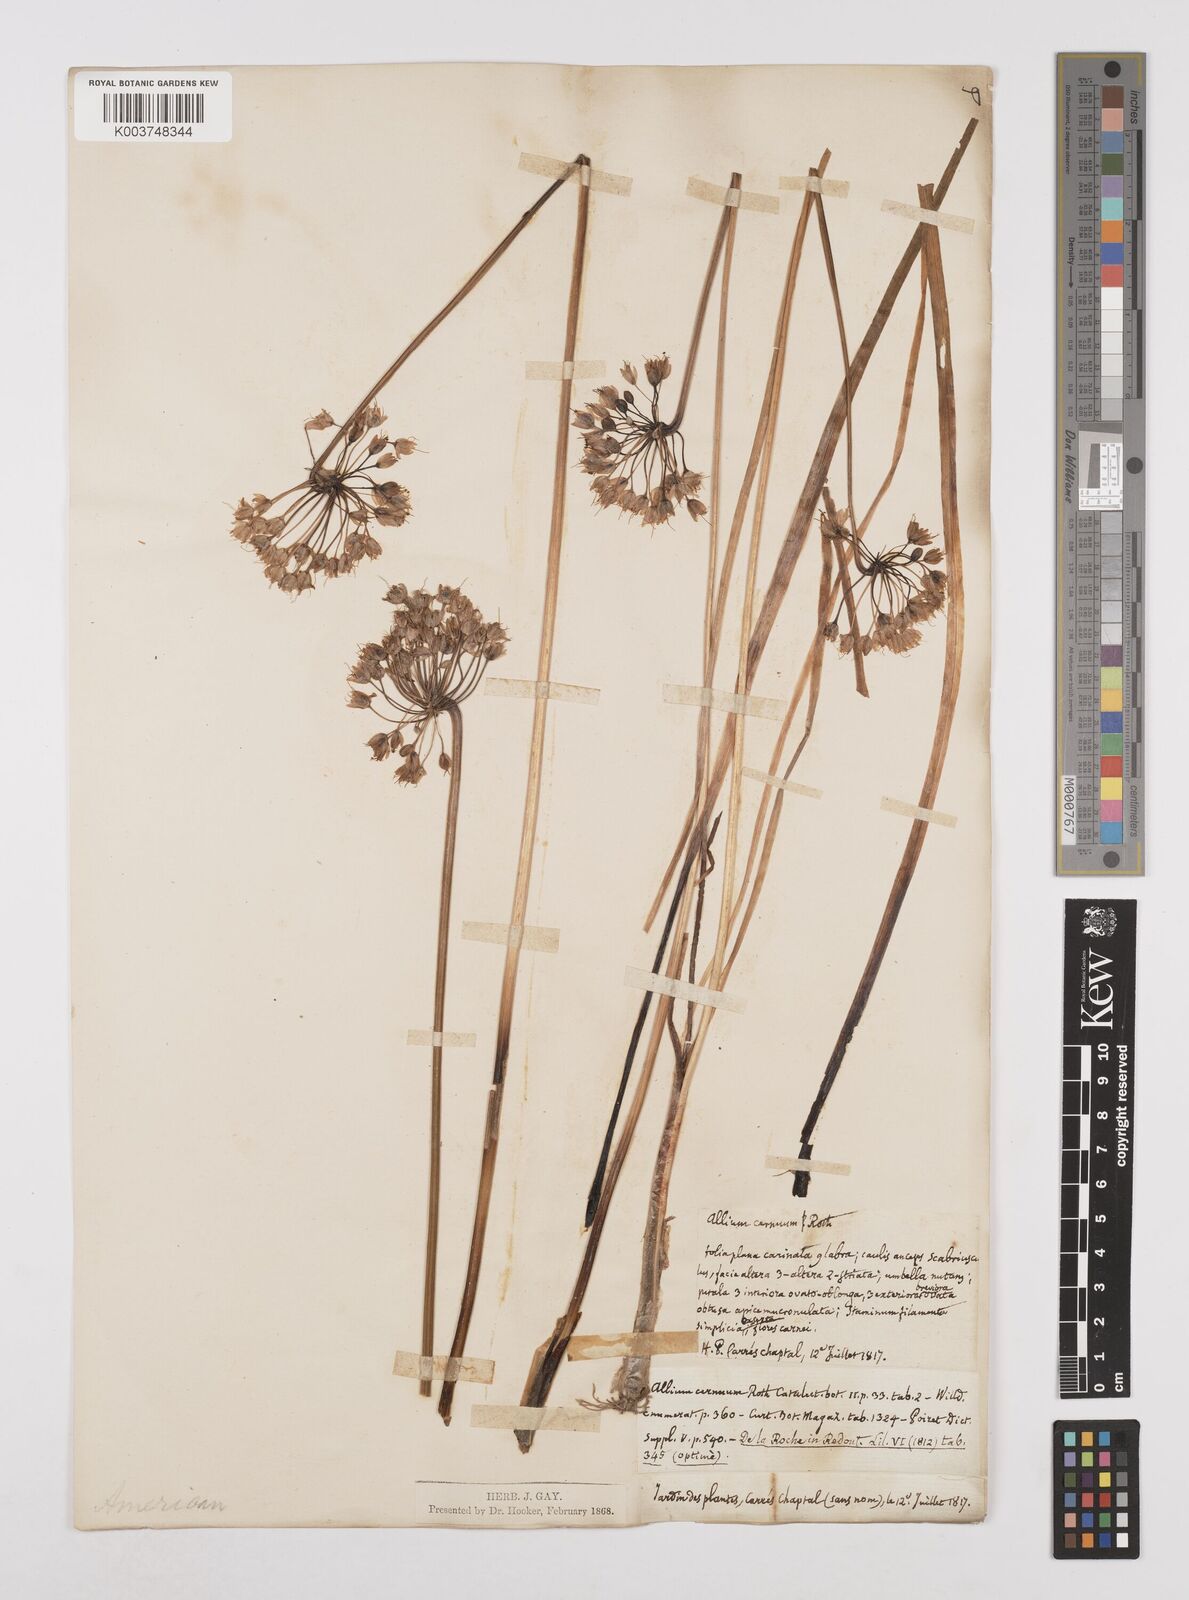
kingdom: Plantae
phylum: Tracheophyta
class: Liliopsida
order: Asparagales
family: Amaryllidaceae
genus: Allium
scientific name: Allium cernuum
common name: Nodding onion
